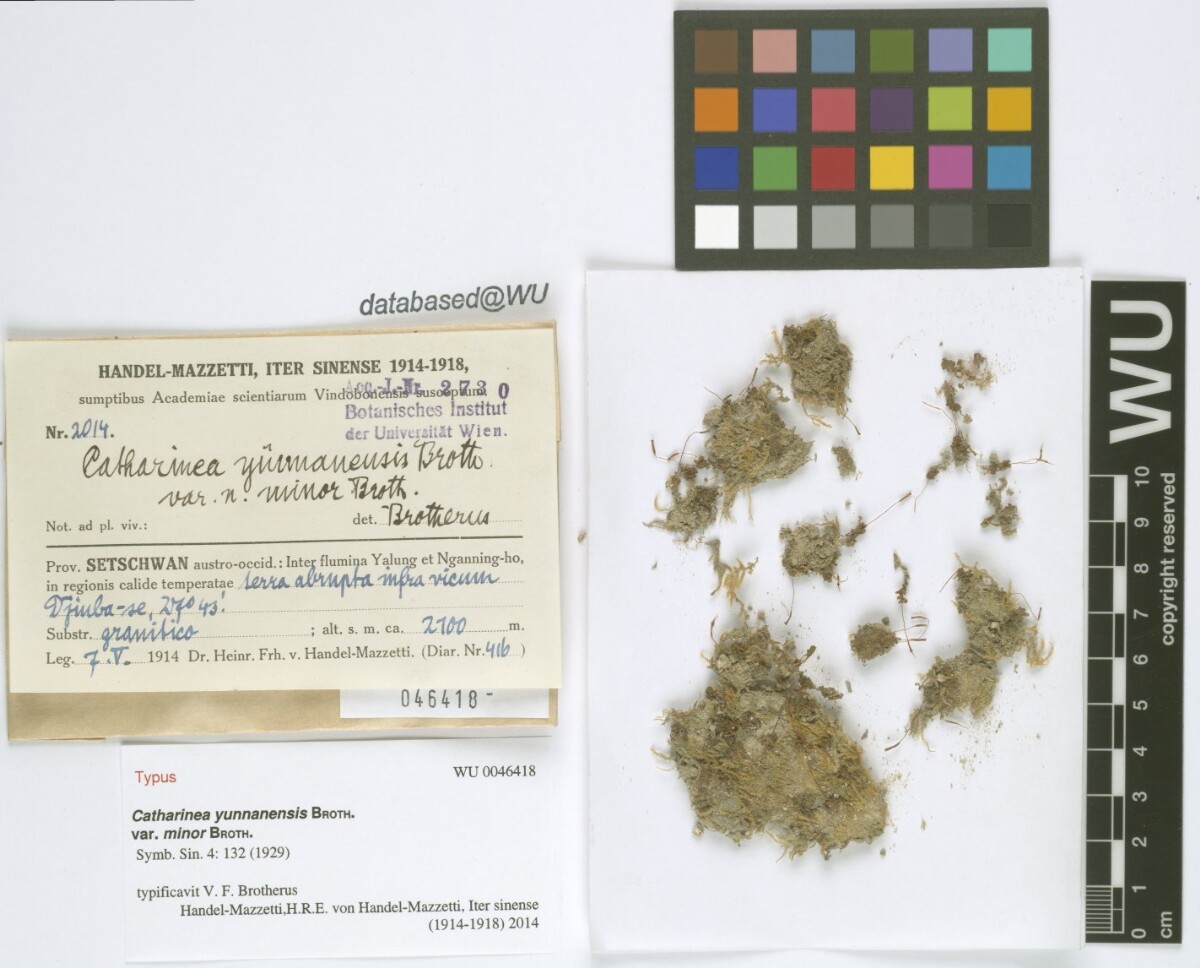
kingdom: Plantae
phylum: Bryophyta
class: Polytrichopsida
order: Polytrichales
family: Polytrichaceae
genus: Atrichum
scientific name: Atrichum flavisetum
